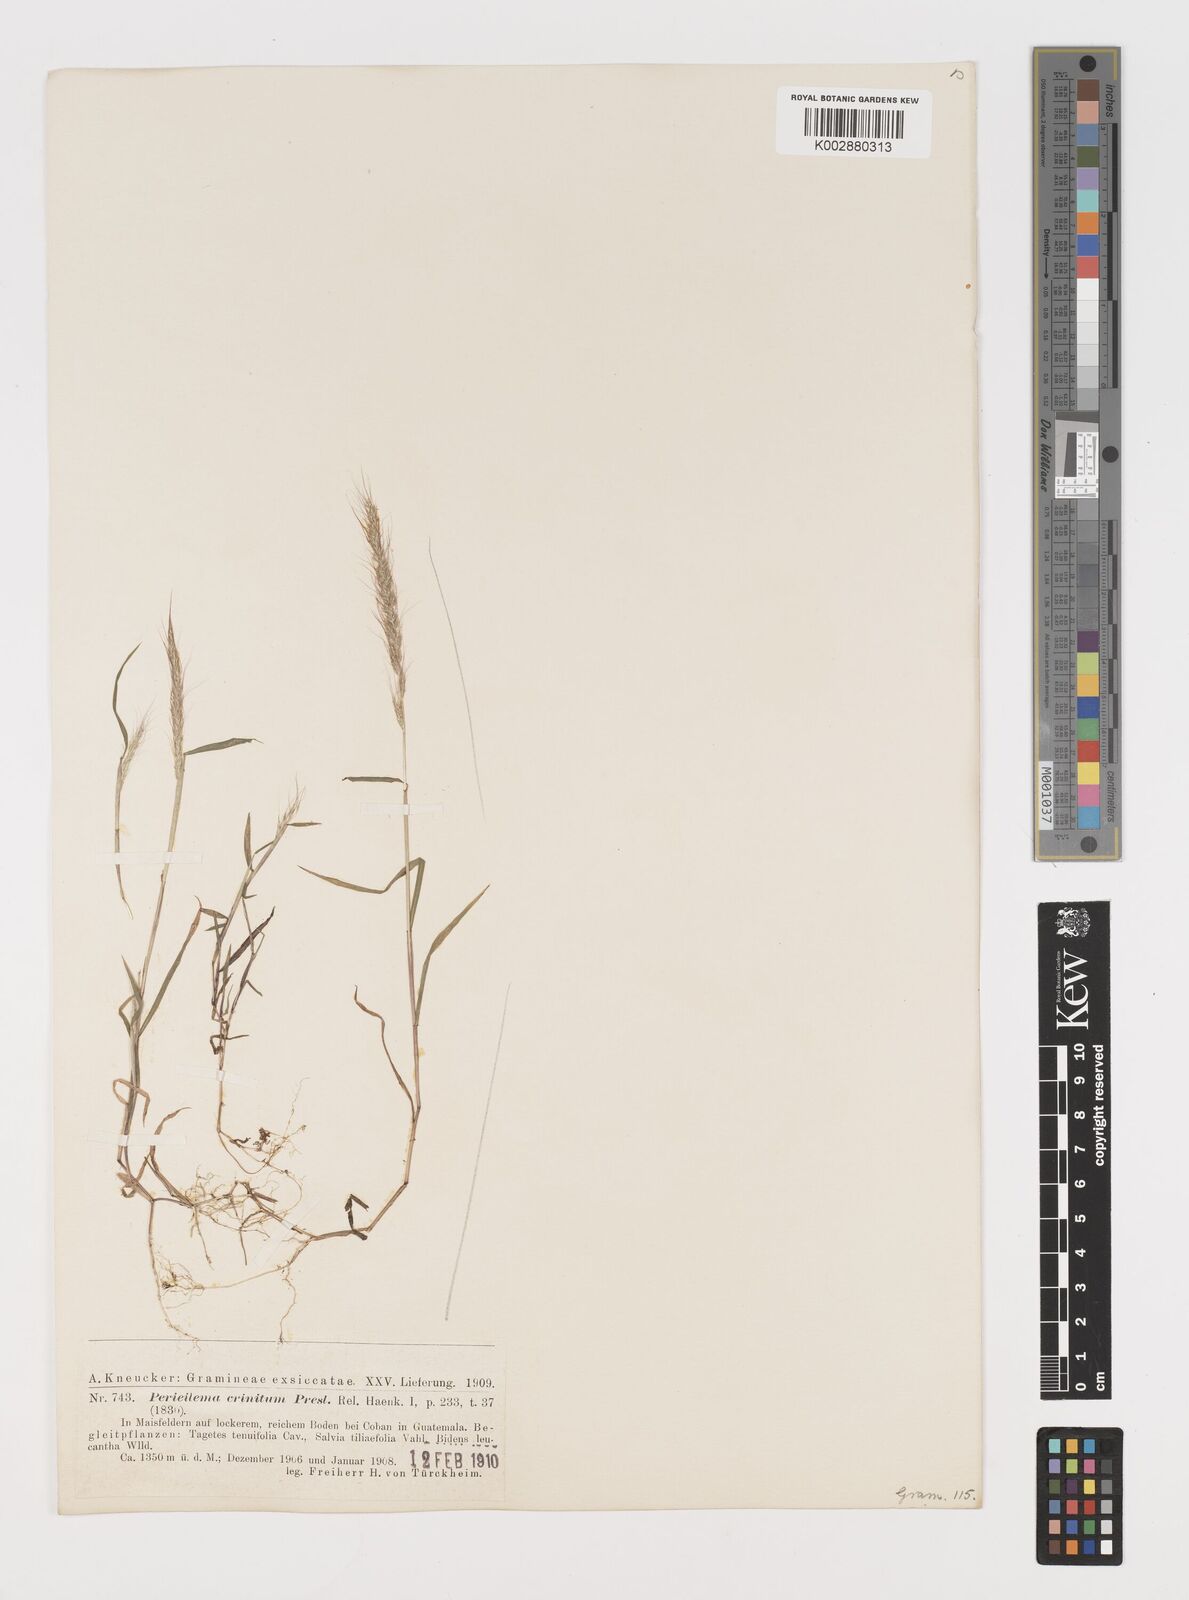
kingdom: Plantae
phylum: Tracheophyta
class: Liliopsida
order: Poales
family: Poaceae
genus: Muhlenbergia
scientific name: Muhlenbergia pereilema
